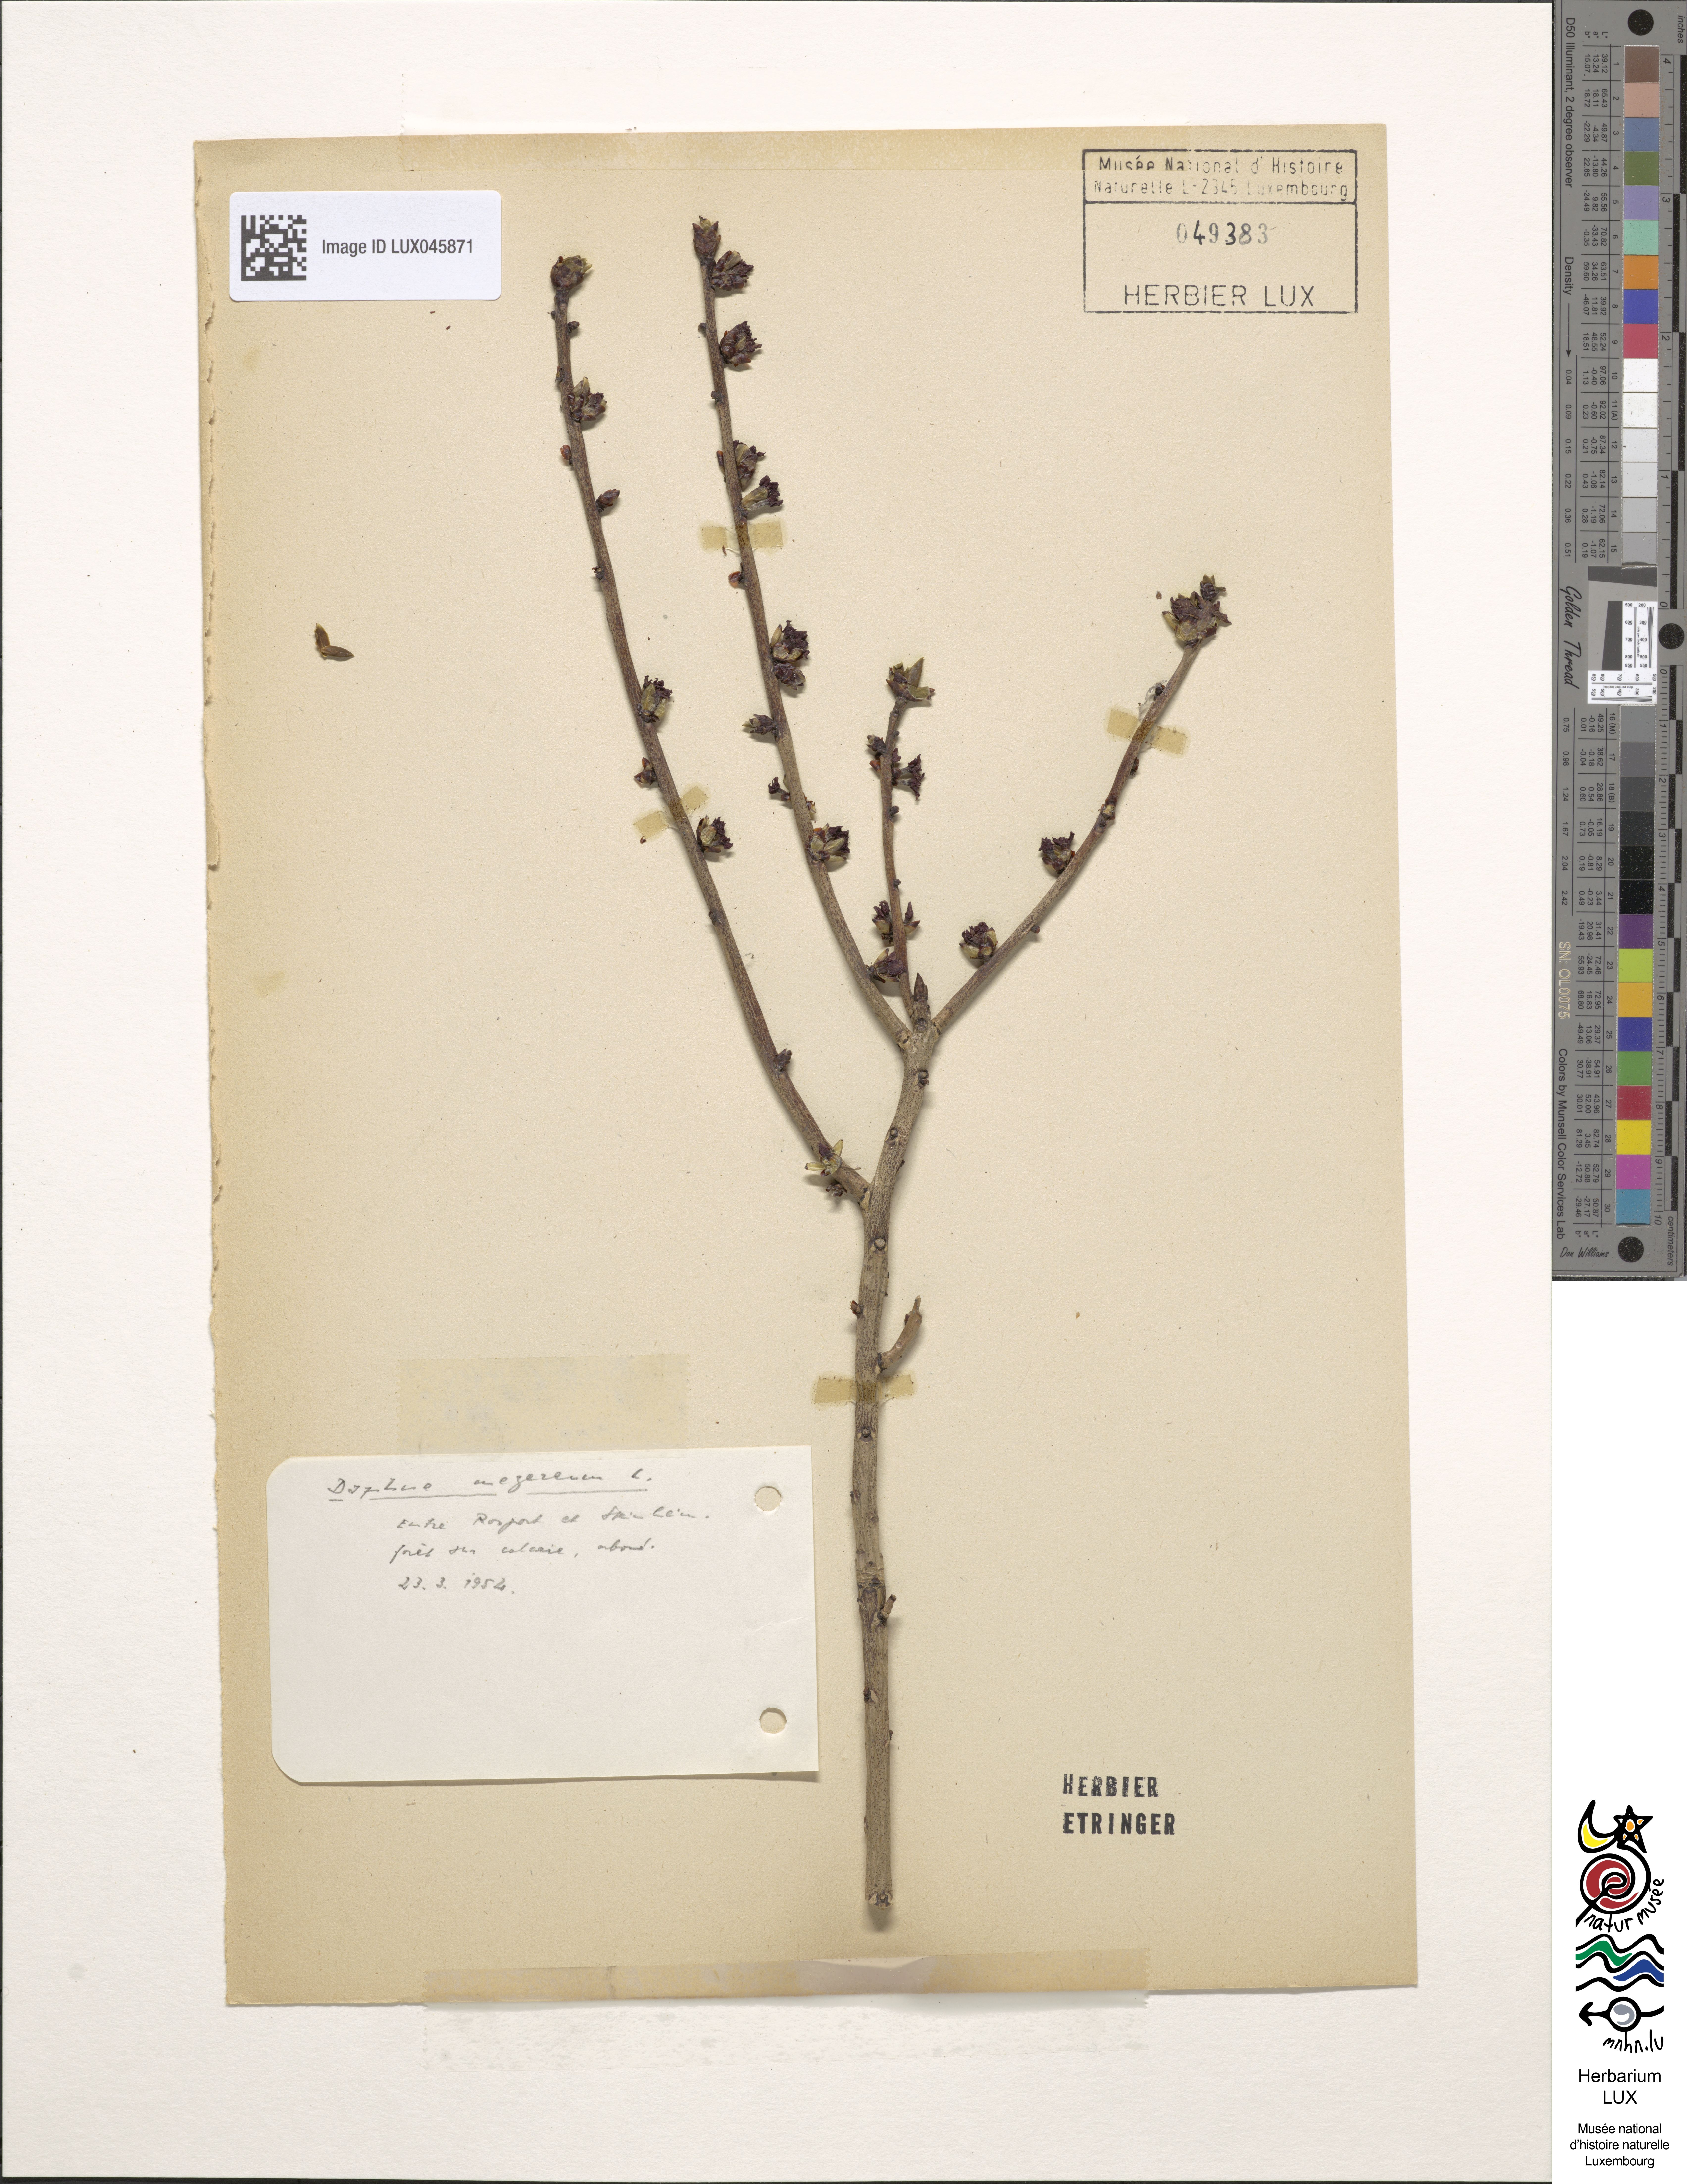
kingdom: Plantae
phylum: Tracheophyta
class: Magnoliopsida
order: Malvales
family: Thymelaeaceae
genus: Daphne
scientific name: Daphne mezereum
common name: Mezereon
